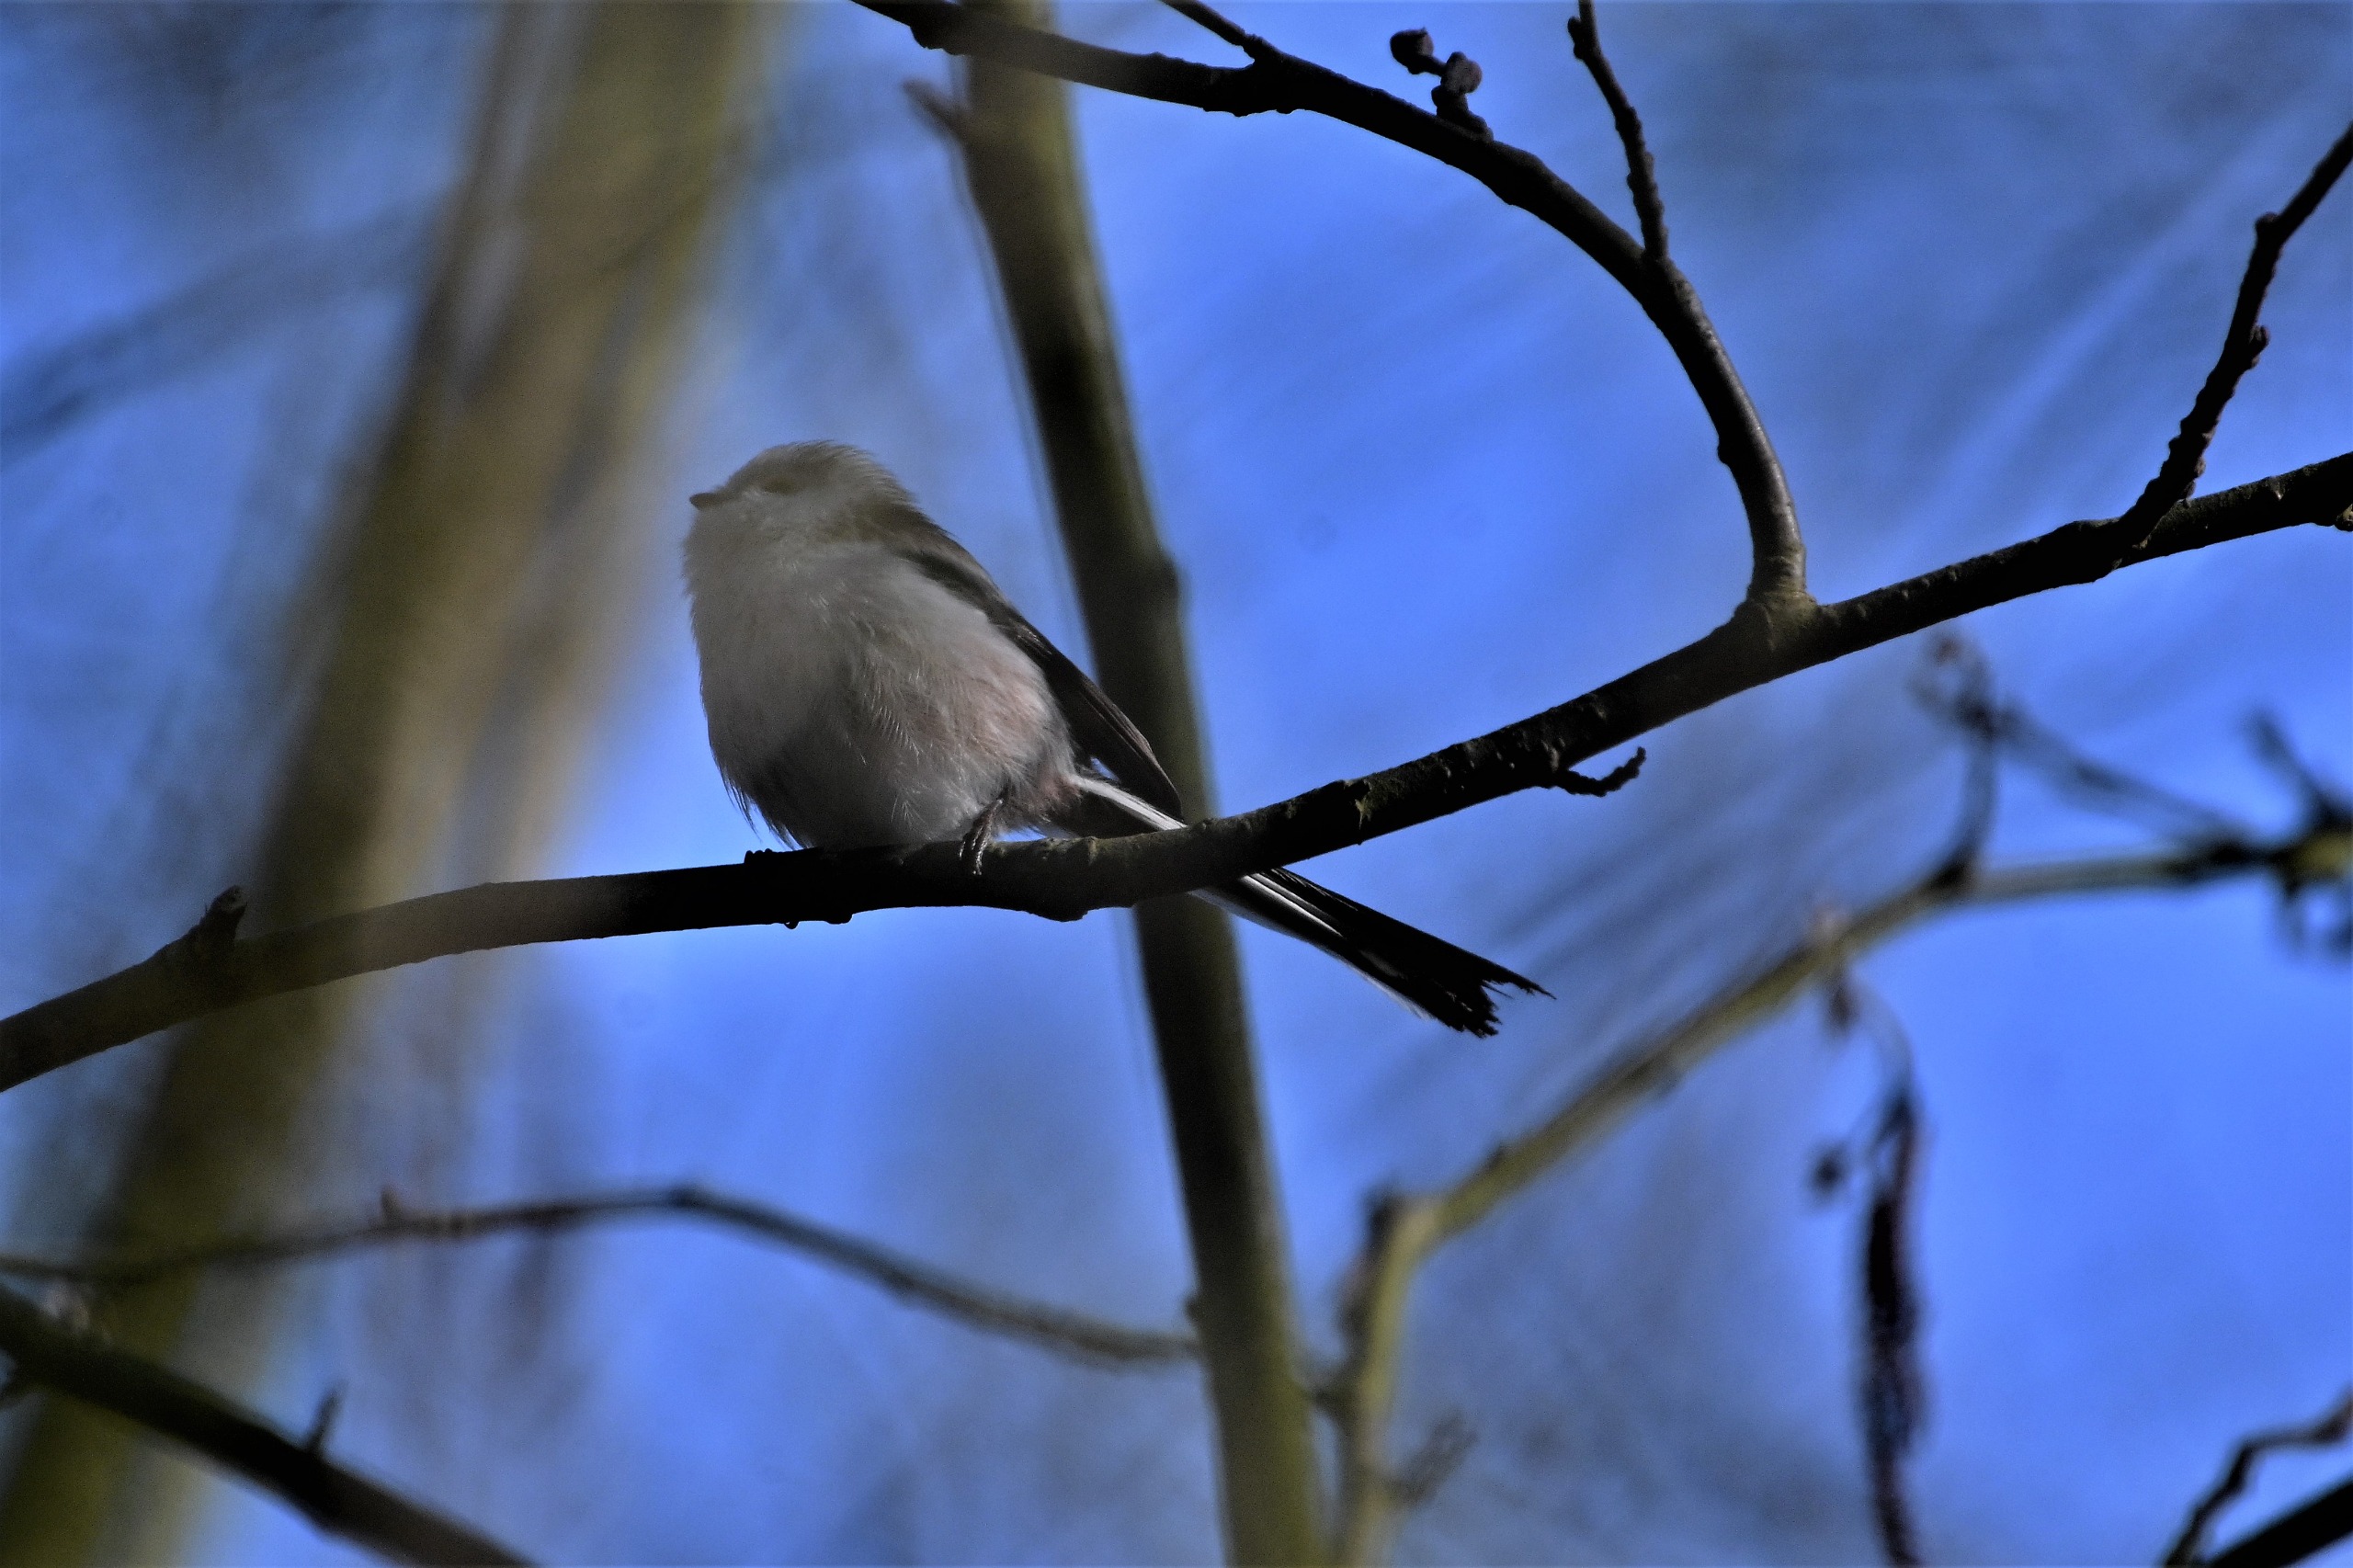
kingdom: Animalia
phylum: Chordata
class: Aves
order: Passeriformes
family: Aegithalidae
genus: Aegithalos
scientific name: Aegithalos caudatus
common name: Halemejse
